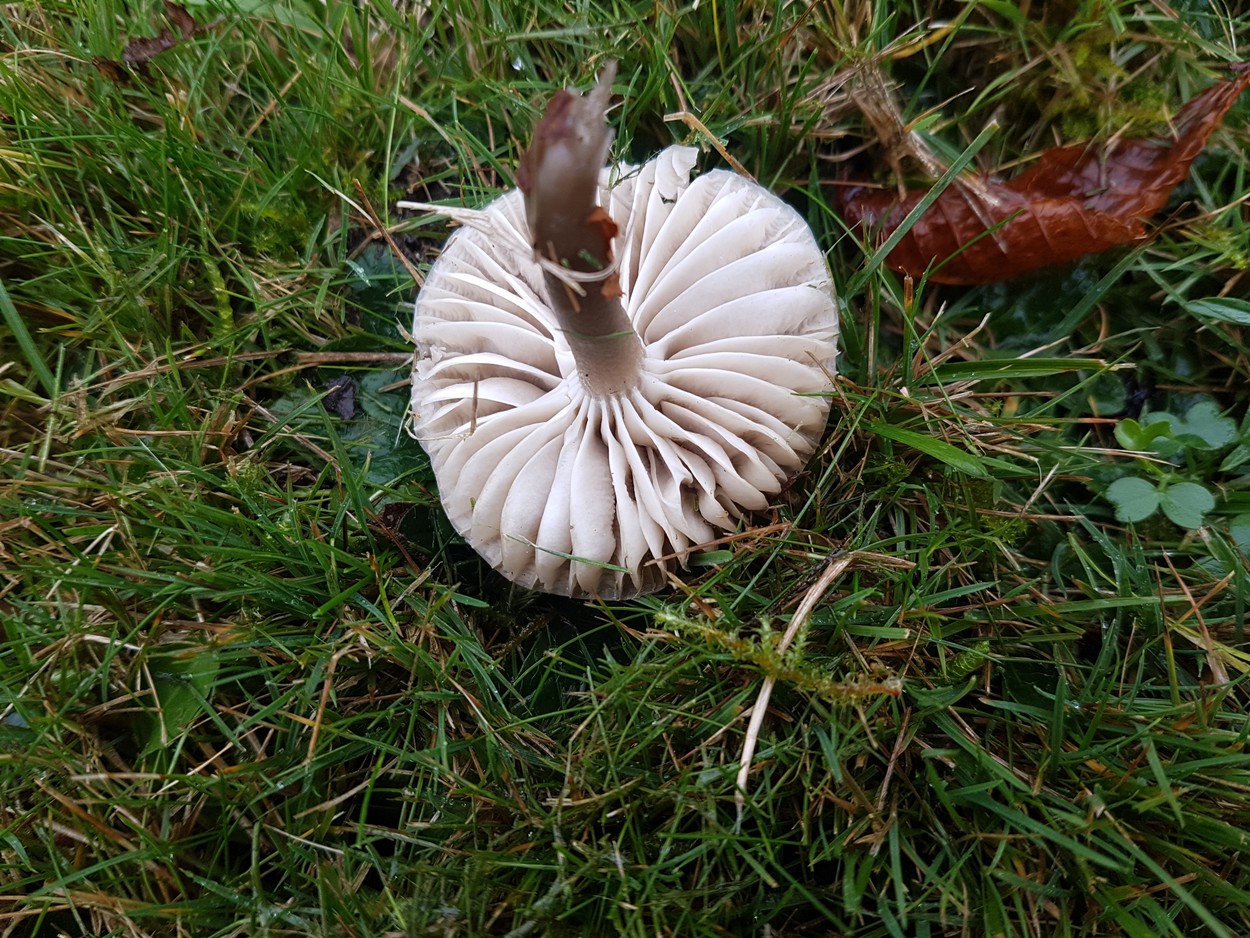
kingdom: Fungi
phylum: Basidiomycota
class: Agaricomycetes
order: Agaricales
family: Hygrophoraceae
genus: Gliophorus
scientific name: Gliophorus irrigatus
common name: slimet vokshat
